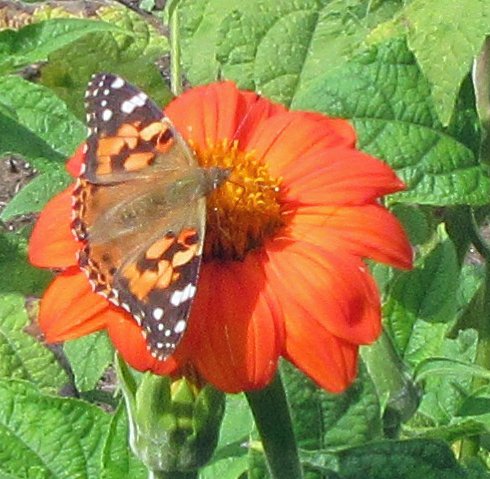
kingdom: Animalia
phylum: Arthropoda
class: Insecta
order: Lepidoptera
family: Nymphalidae
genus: Vanessa
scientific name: Vanessa cardui
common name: Painted Lady
